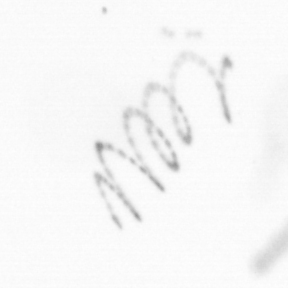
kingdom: Chromista
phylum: Ochrophyta
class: Bacillariophyceae
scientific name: Bacillariophyceae
